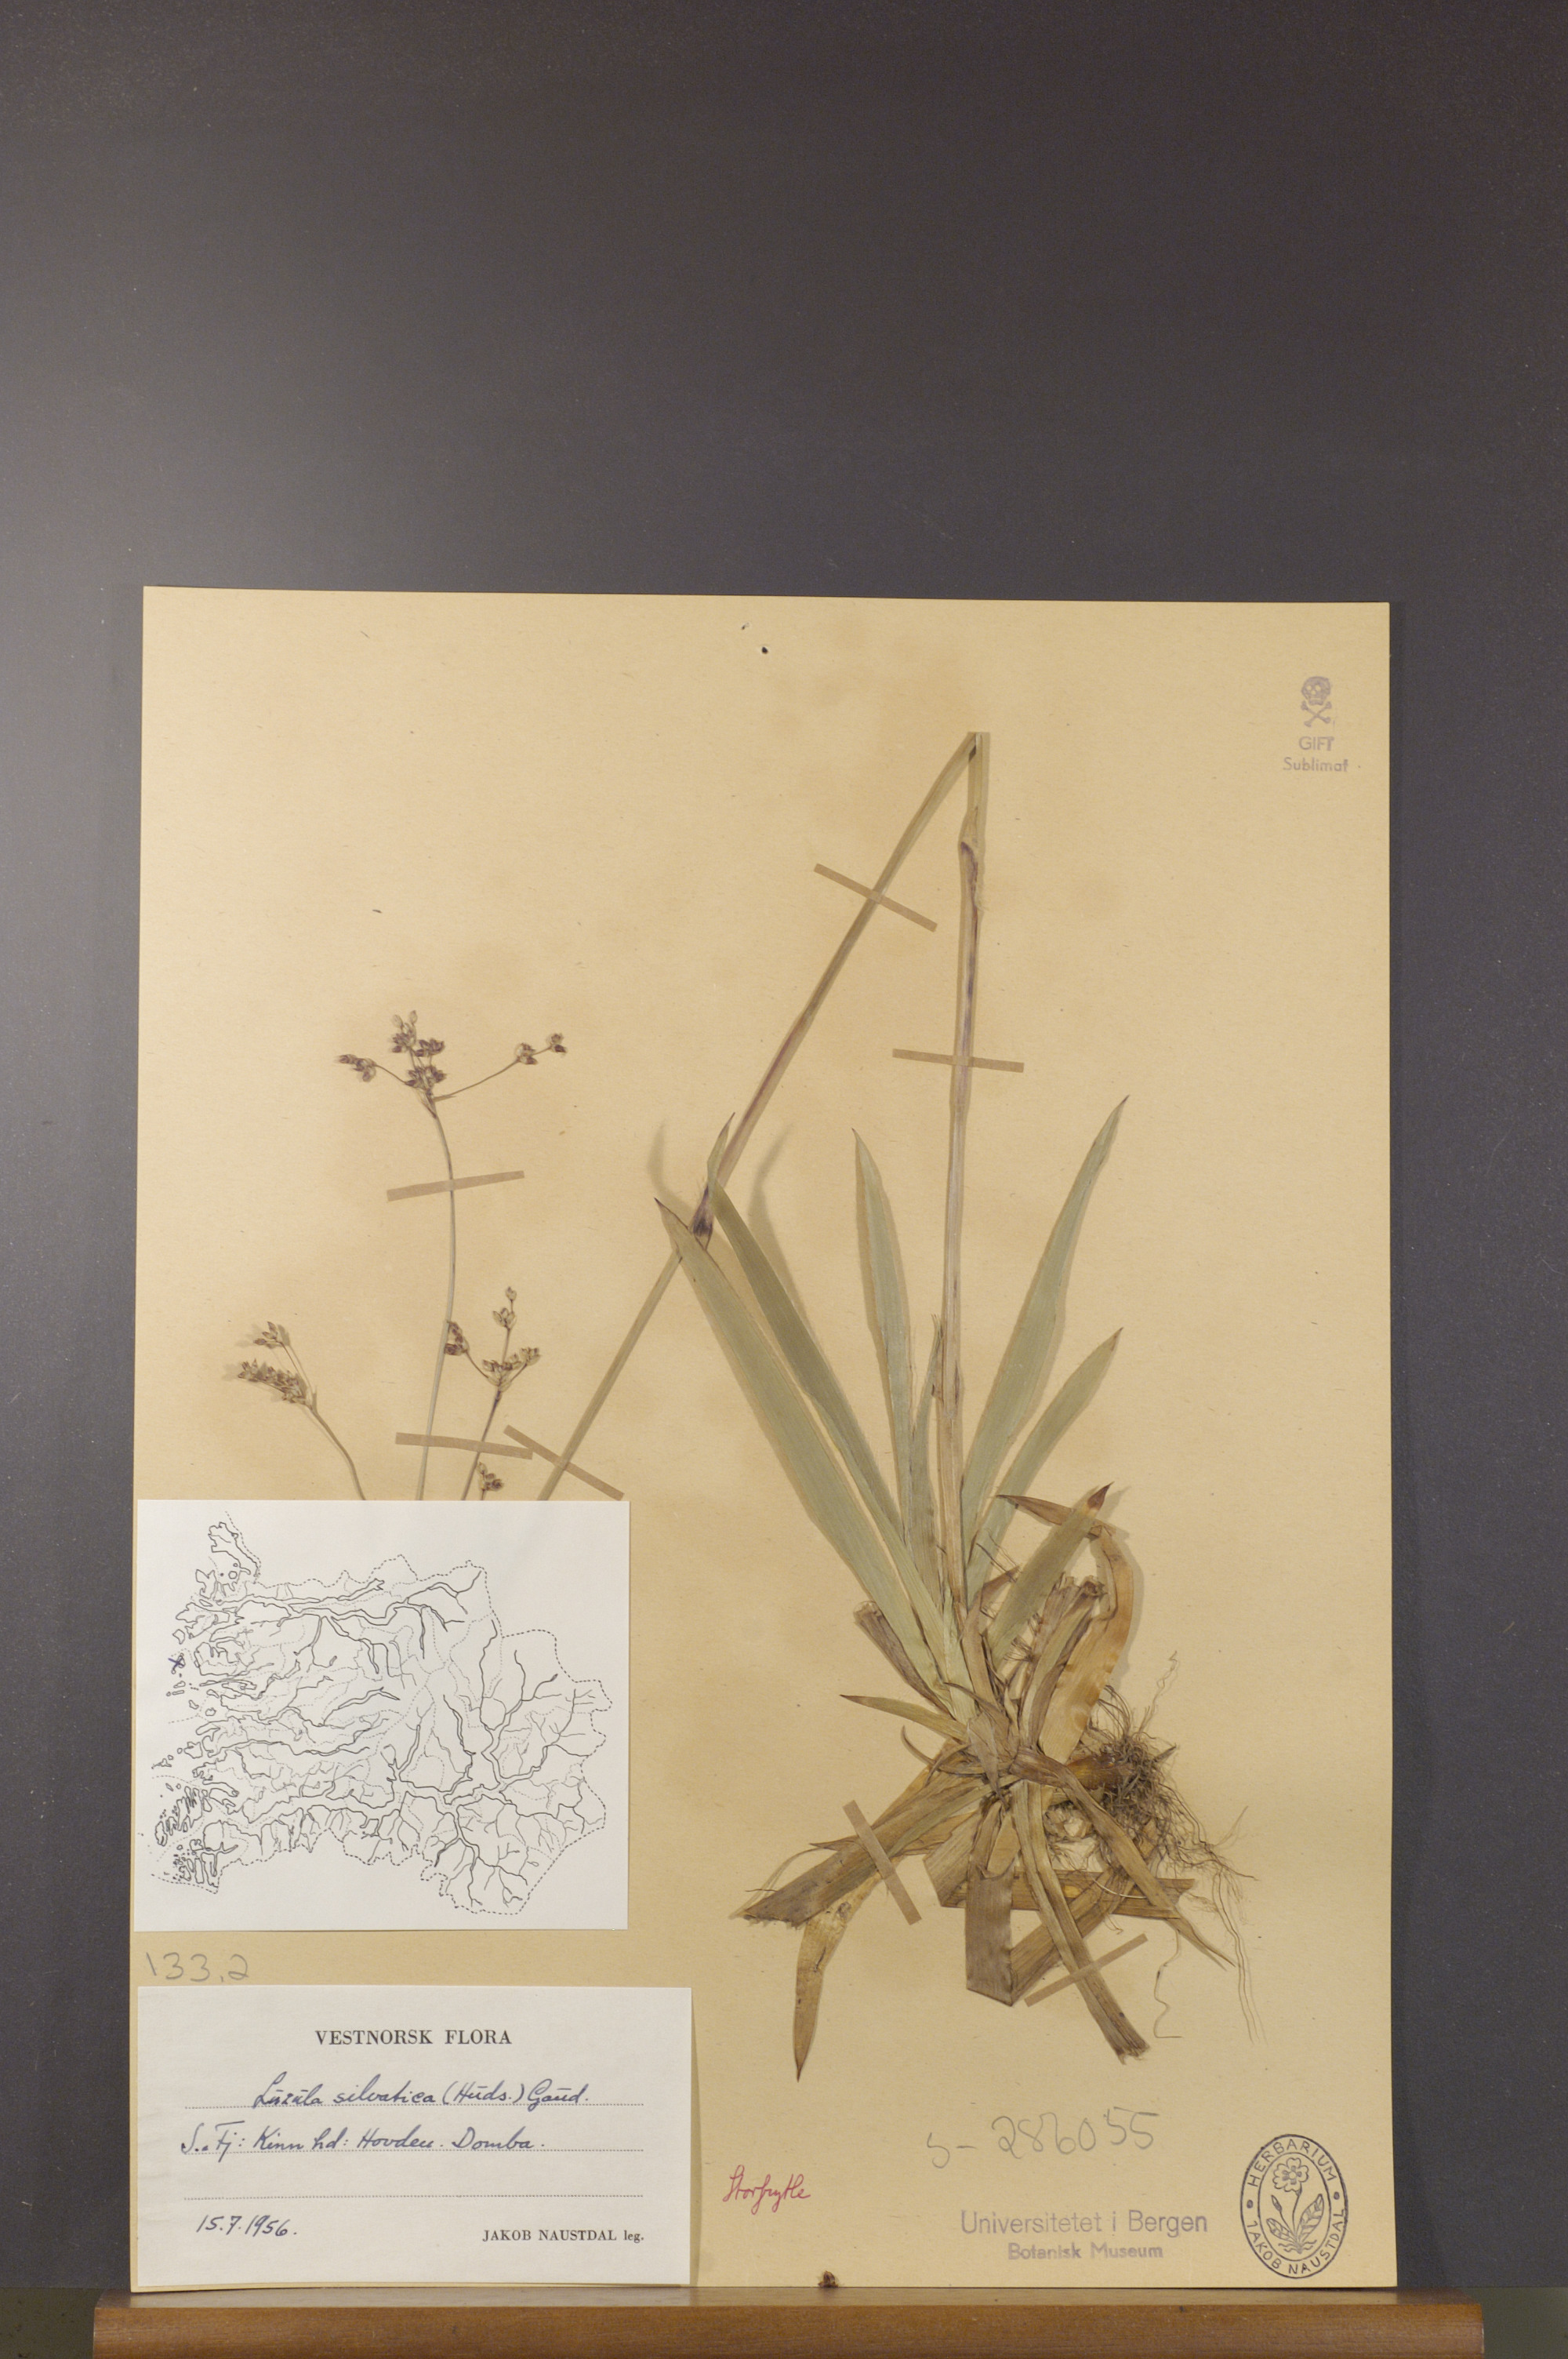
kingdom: Plantae
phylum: Tracheophyta
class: Liliopsida
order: Poales
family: Juncaceae
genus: Luzula
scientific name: Luzula sylvatica
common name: Great wood-rush
